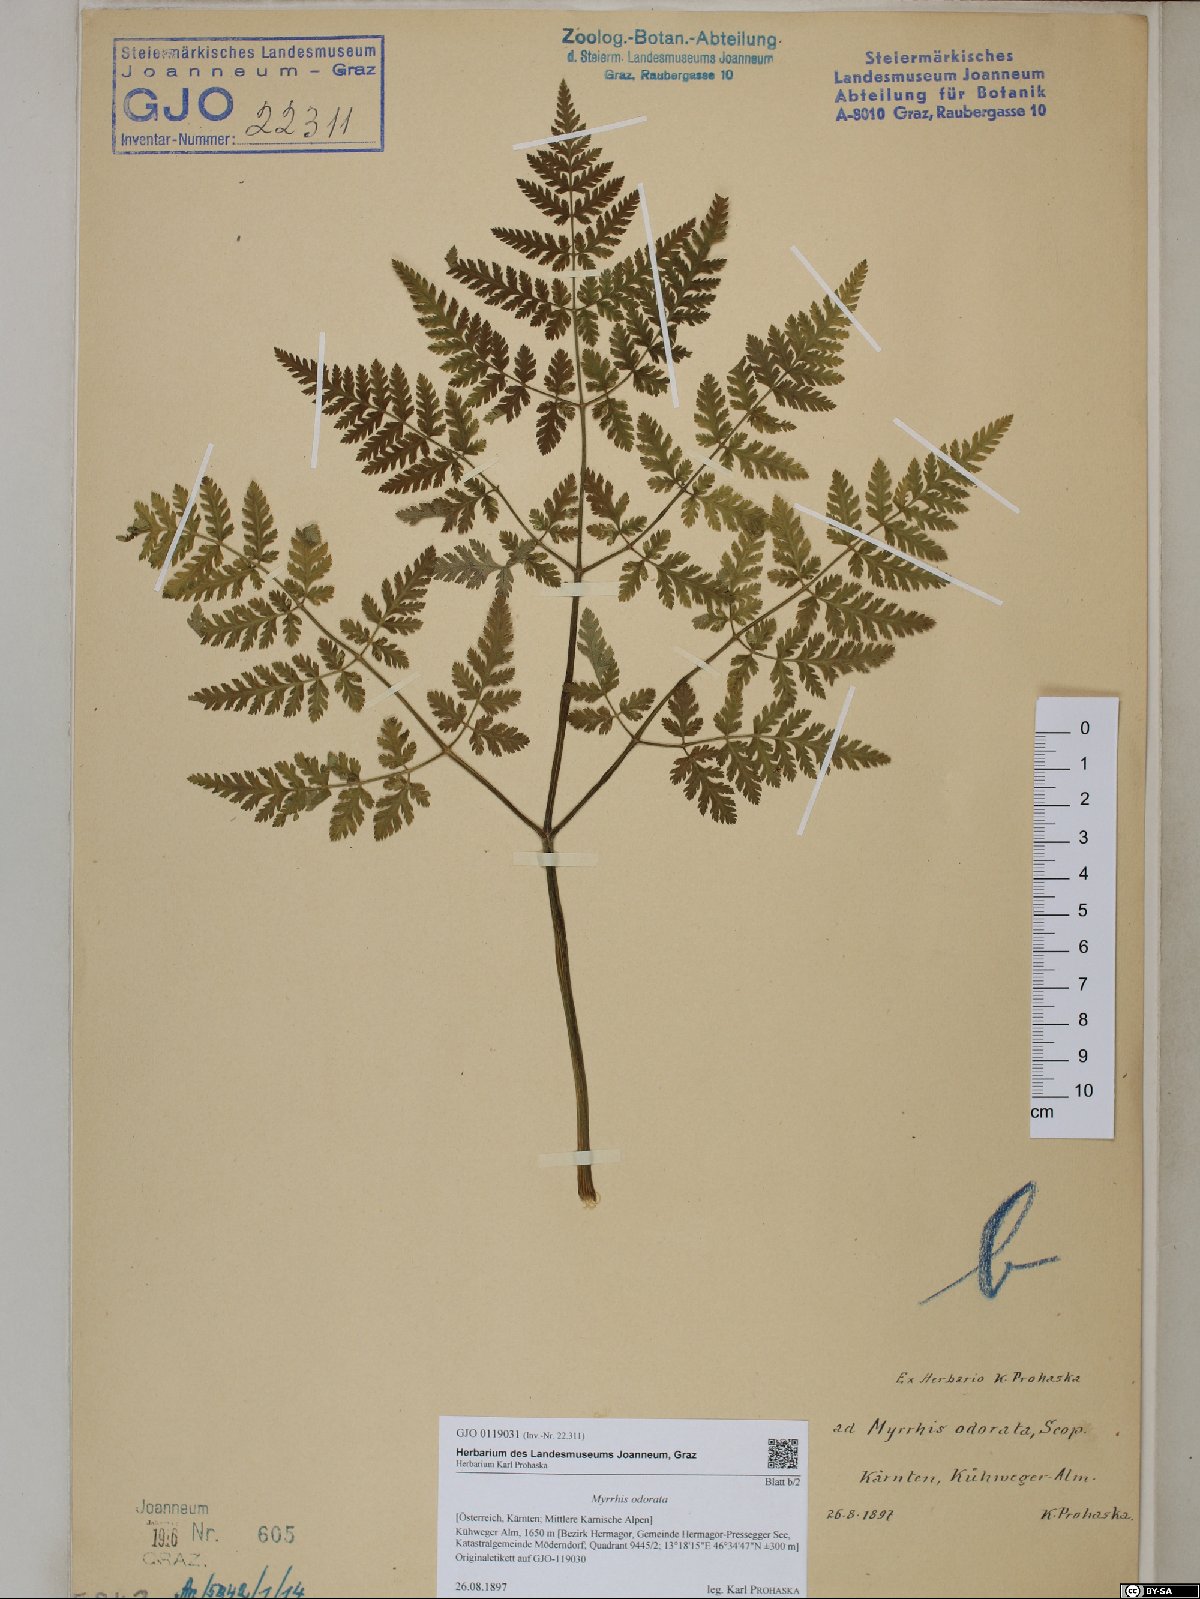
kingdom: Plantae
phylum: Tracheophyta
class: Magnoliopsida
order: Apiales
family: Apiaceae
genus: Myrrhis
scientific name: Myrrhis odorata
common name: Sweet cicely
